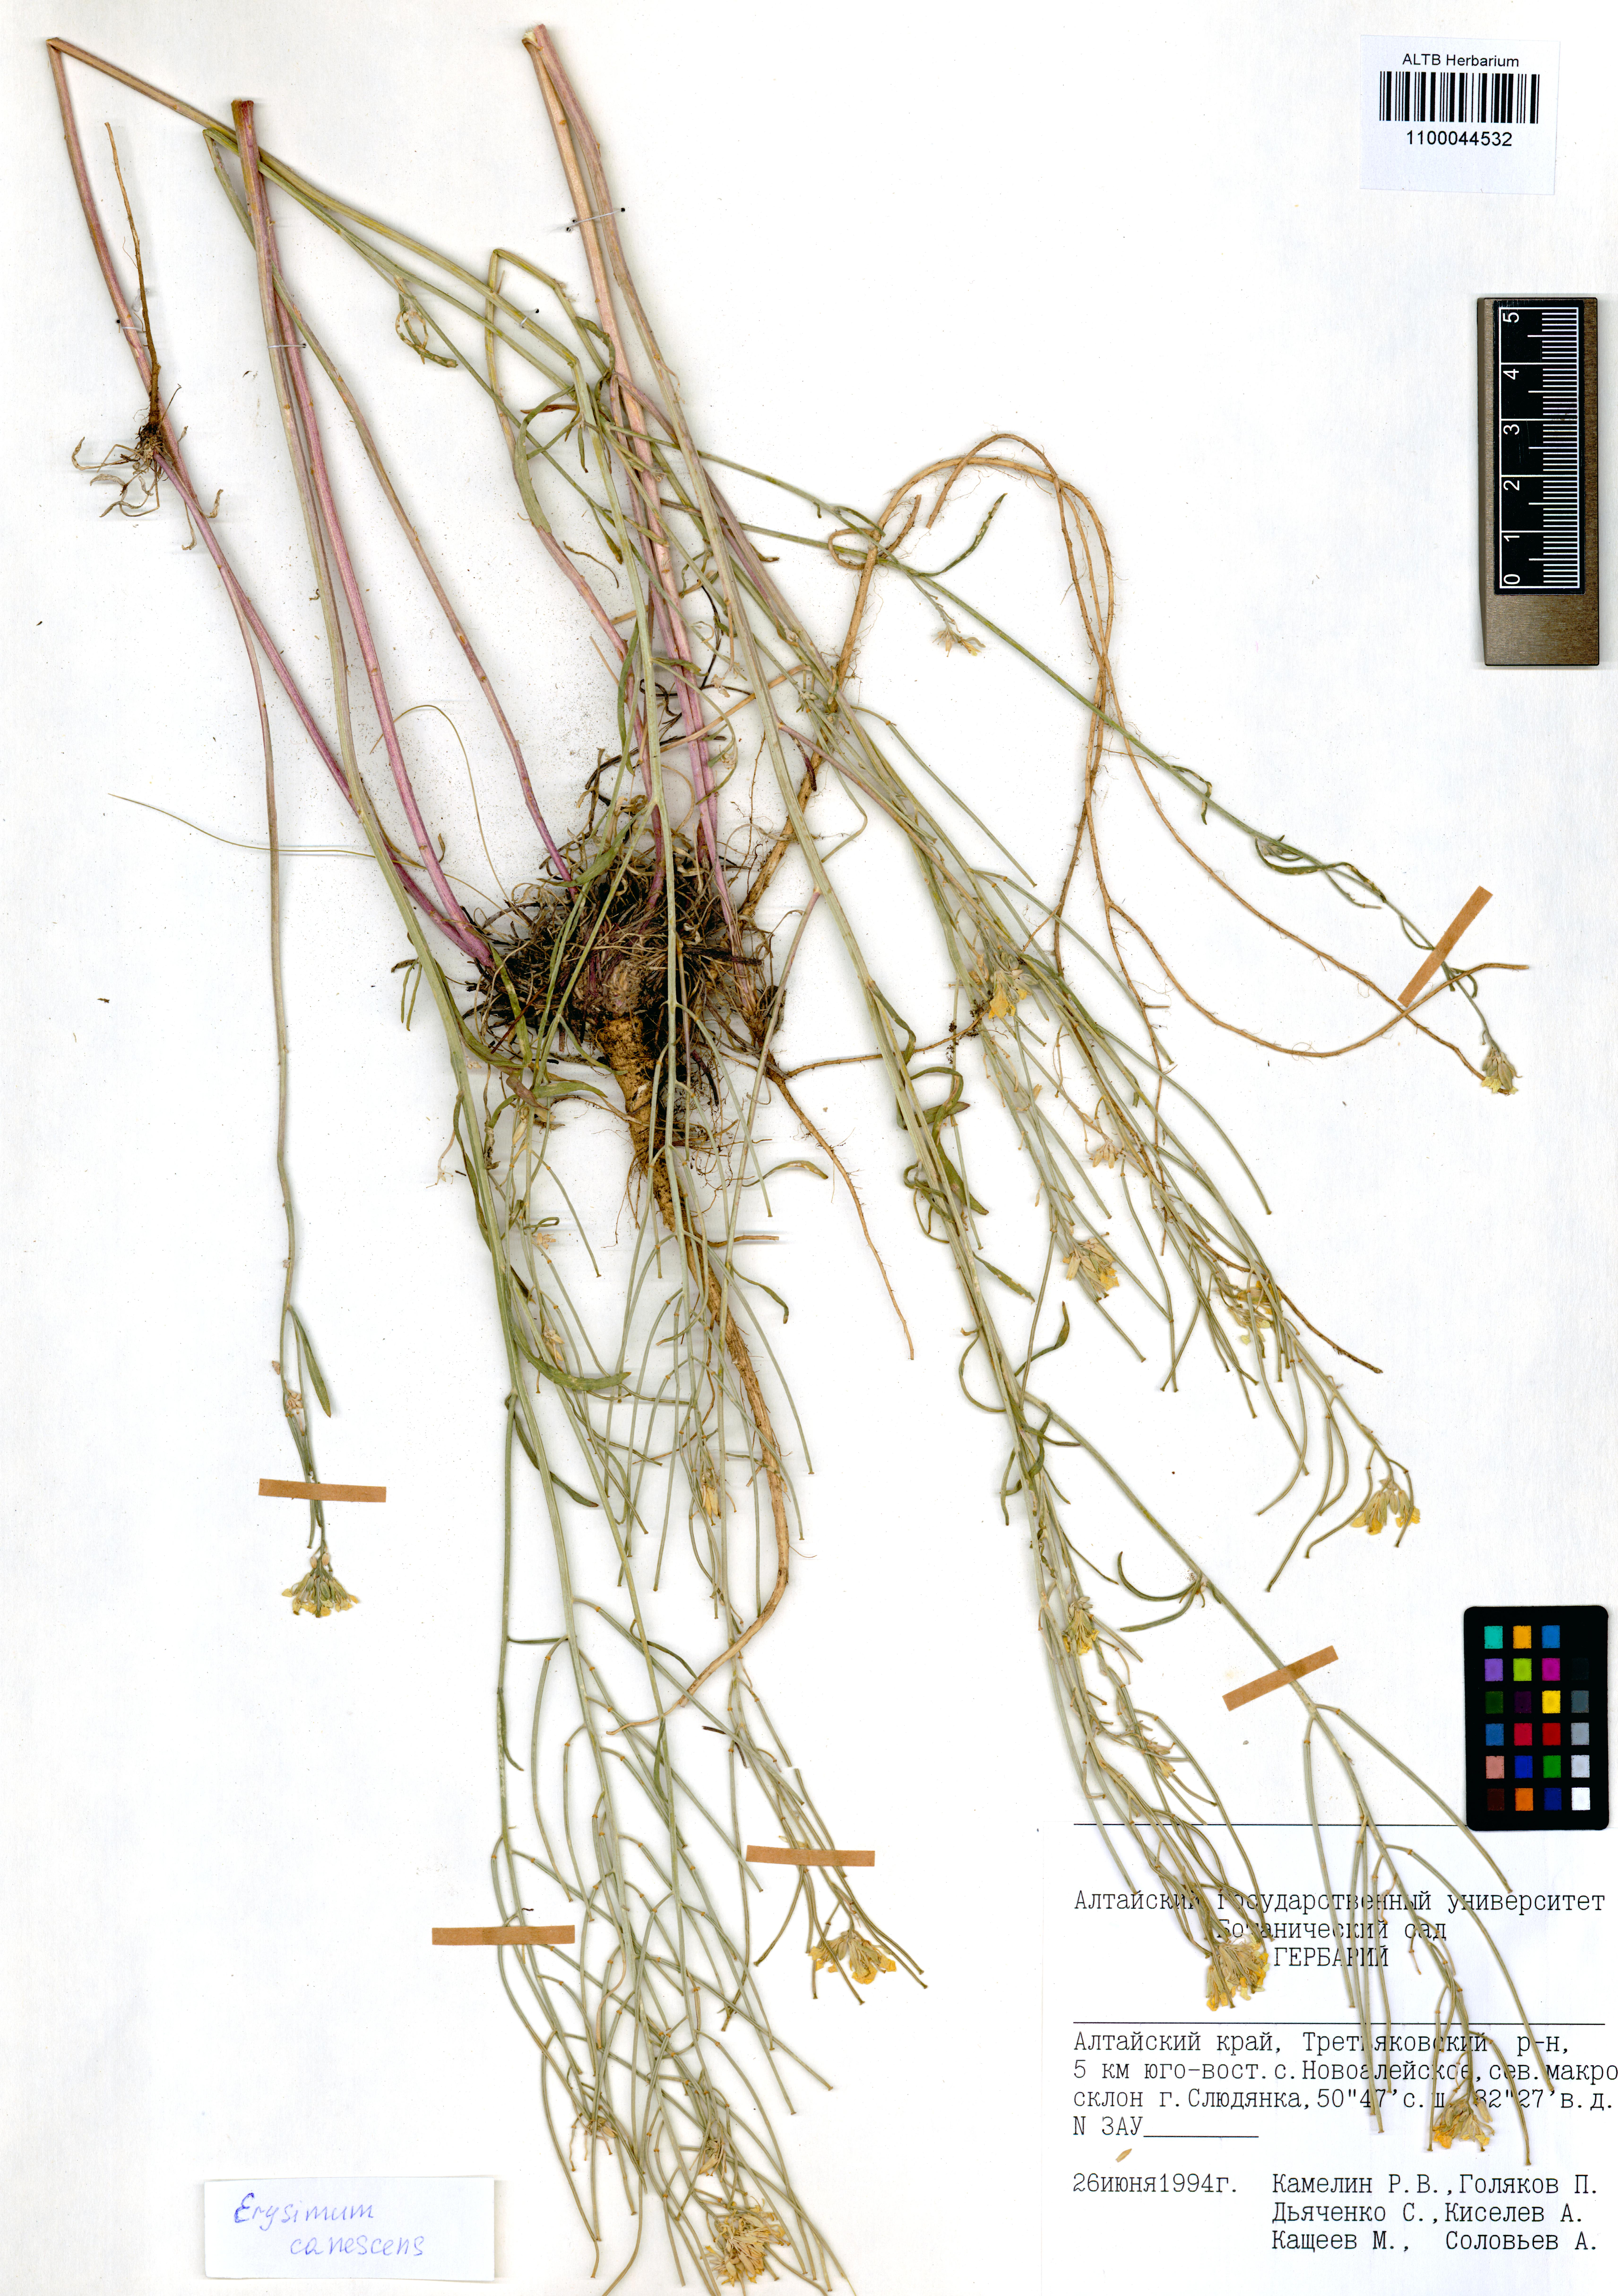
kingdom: Plantae
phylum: Tracheophyta
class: Magnoliopsida
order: Brassicales
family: Brassicaceae
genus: Erysimum
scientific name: Erysimum canescens
